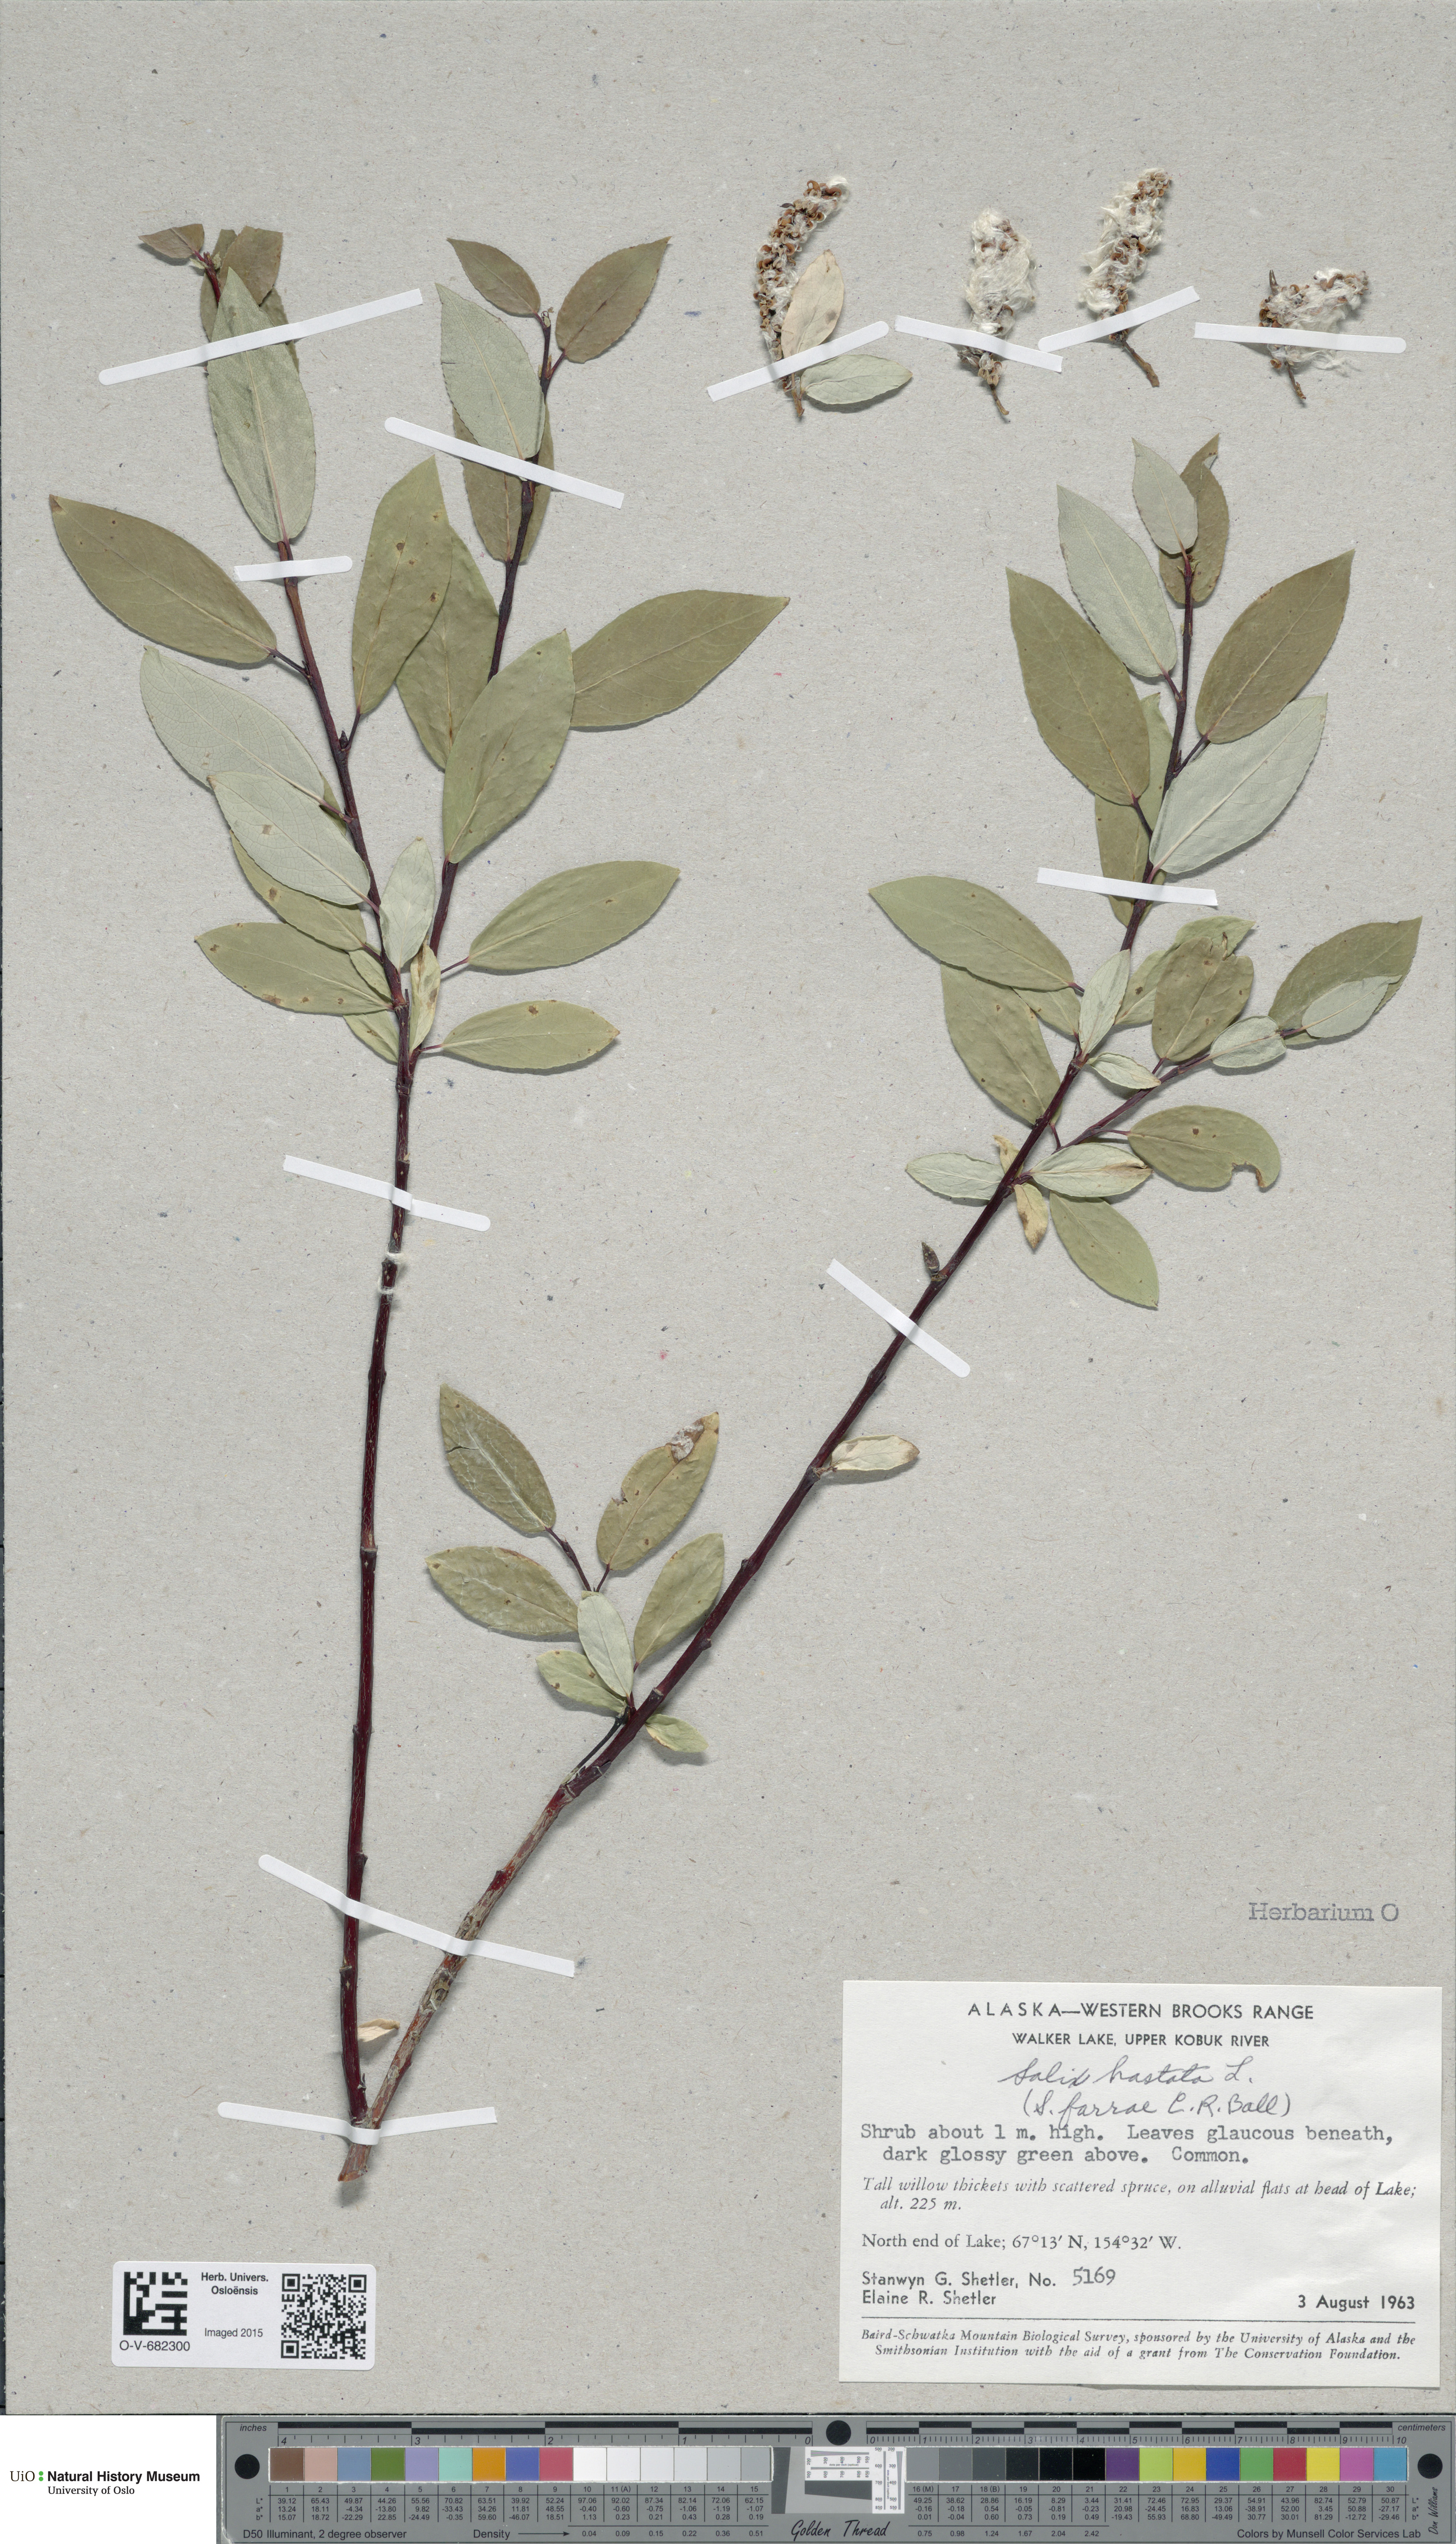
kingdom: Plantae
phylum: Tracheophyta
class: Magnoliopsida
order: Malpighiales
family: Salicaceae
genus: Salix
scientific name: Salix hastata
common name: Halberd willow
